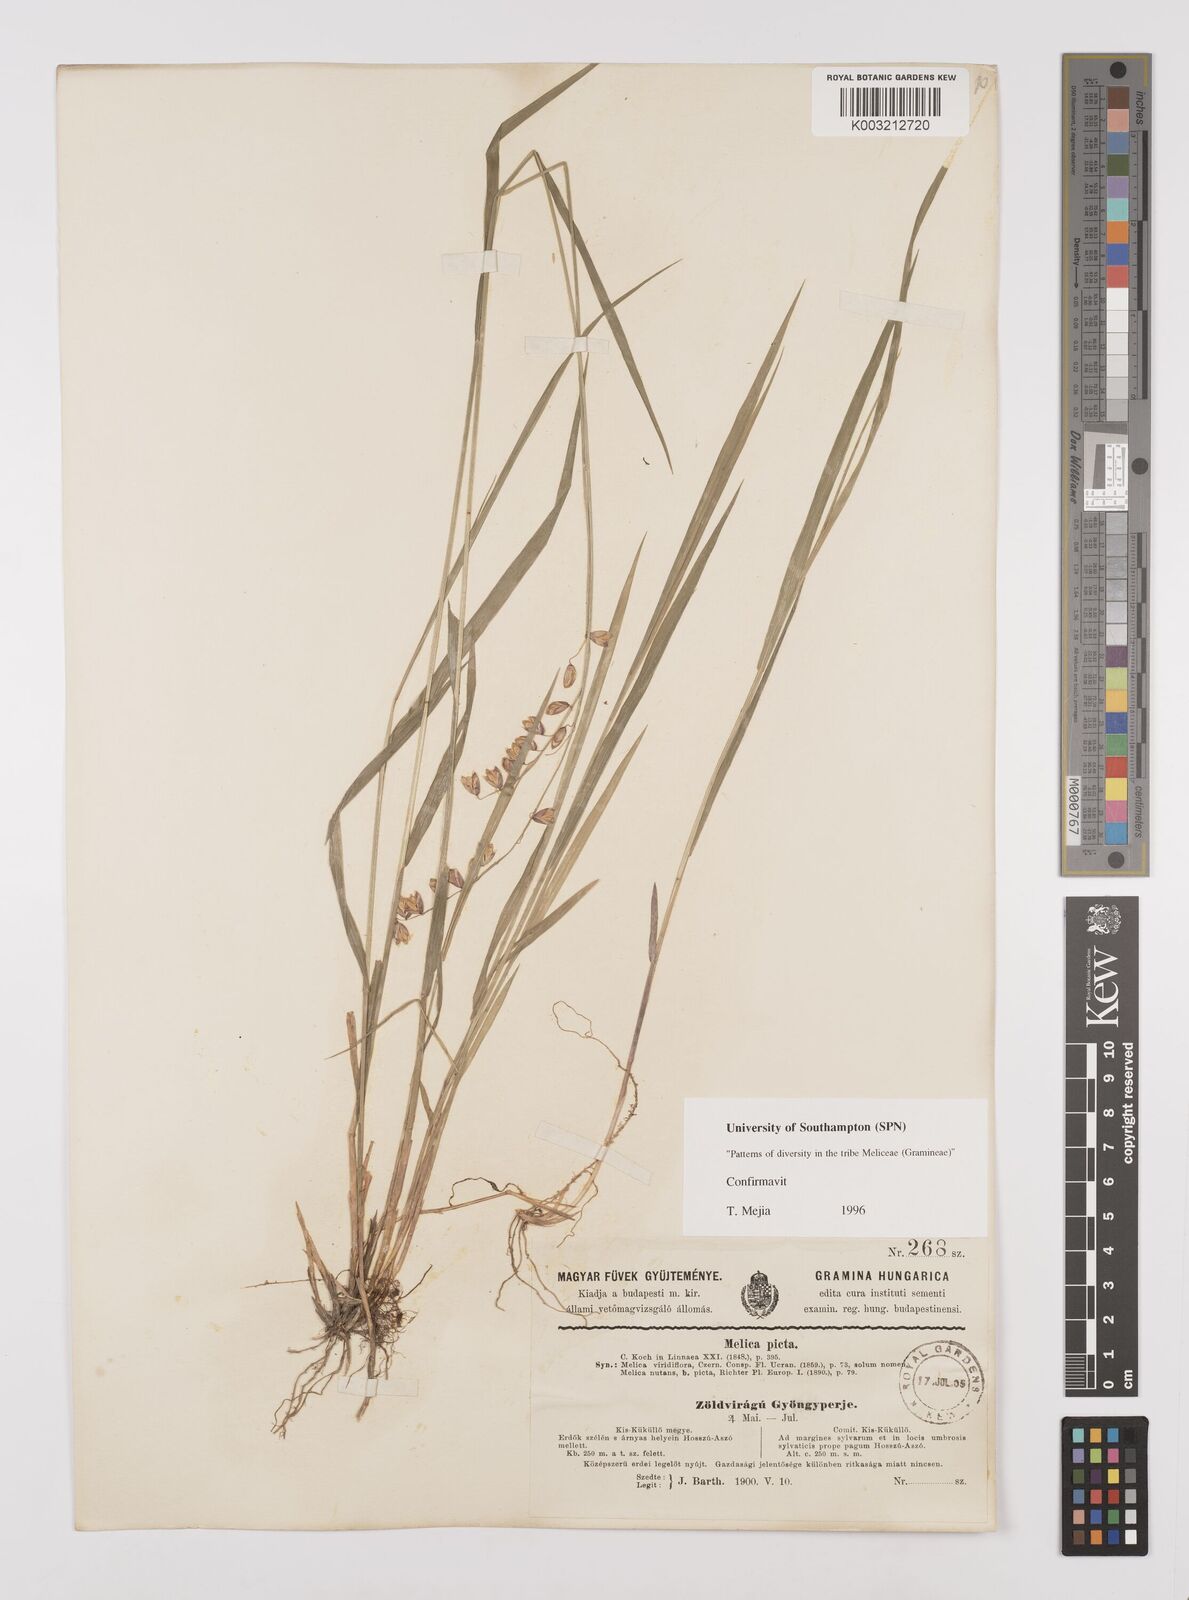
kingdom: Plantae
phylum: Tracheophyta
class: Liliopsida
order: Poales
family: Poaceae
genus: Melica
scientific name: Melica picta
